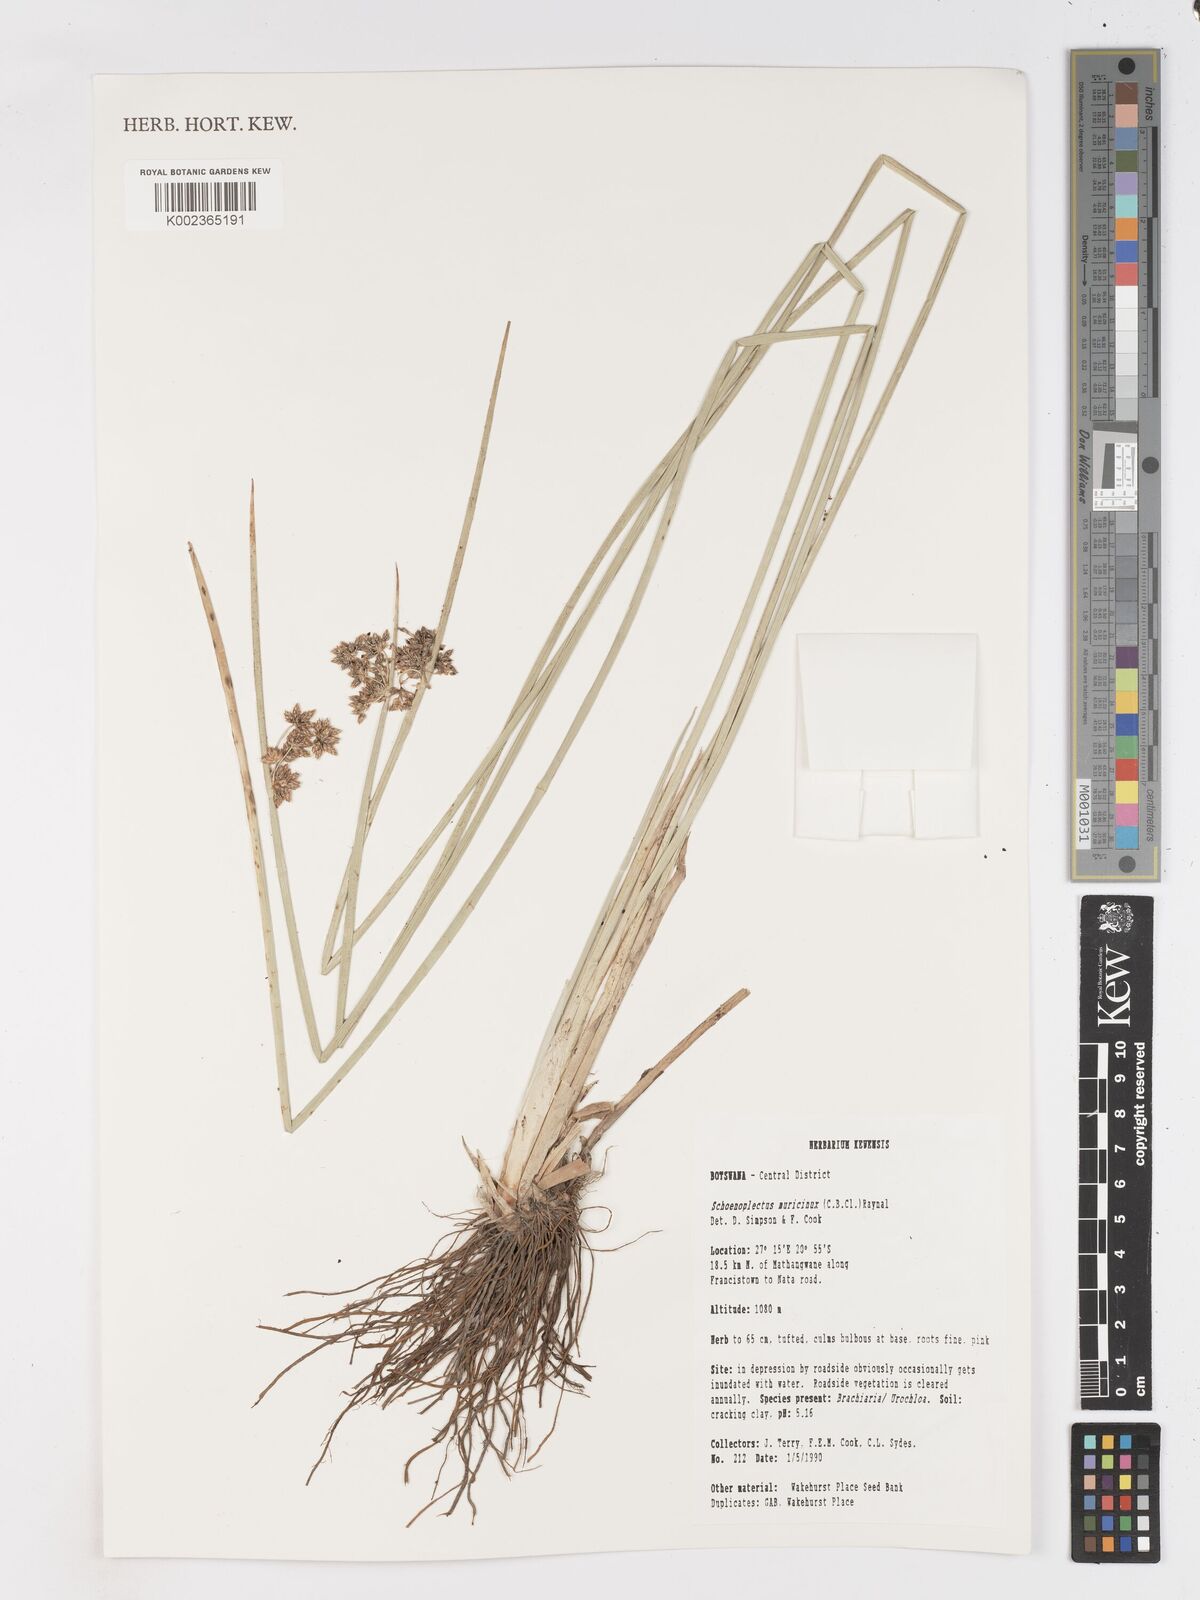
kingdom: Plantae
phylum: Tracheophyta
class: Liliopsida
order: Poales
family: Cyperaceae
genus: Schoenoplectiella
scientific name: Schoenoplectiella muricinux
